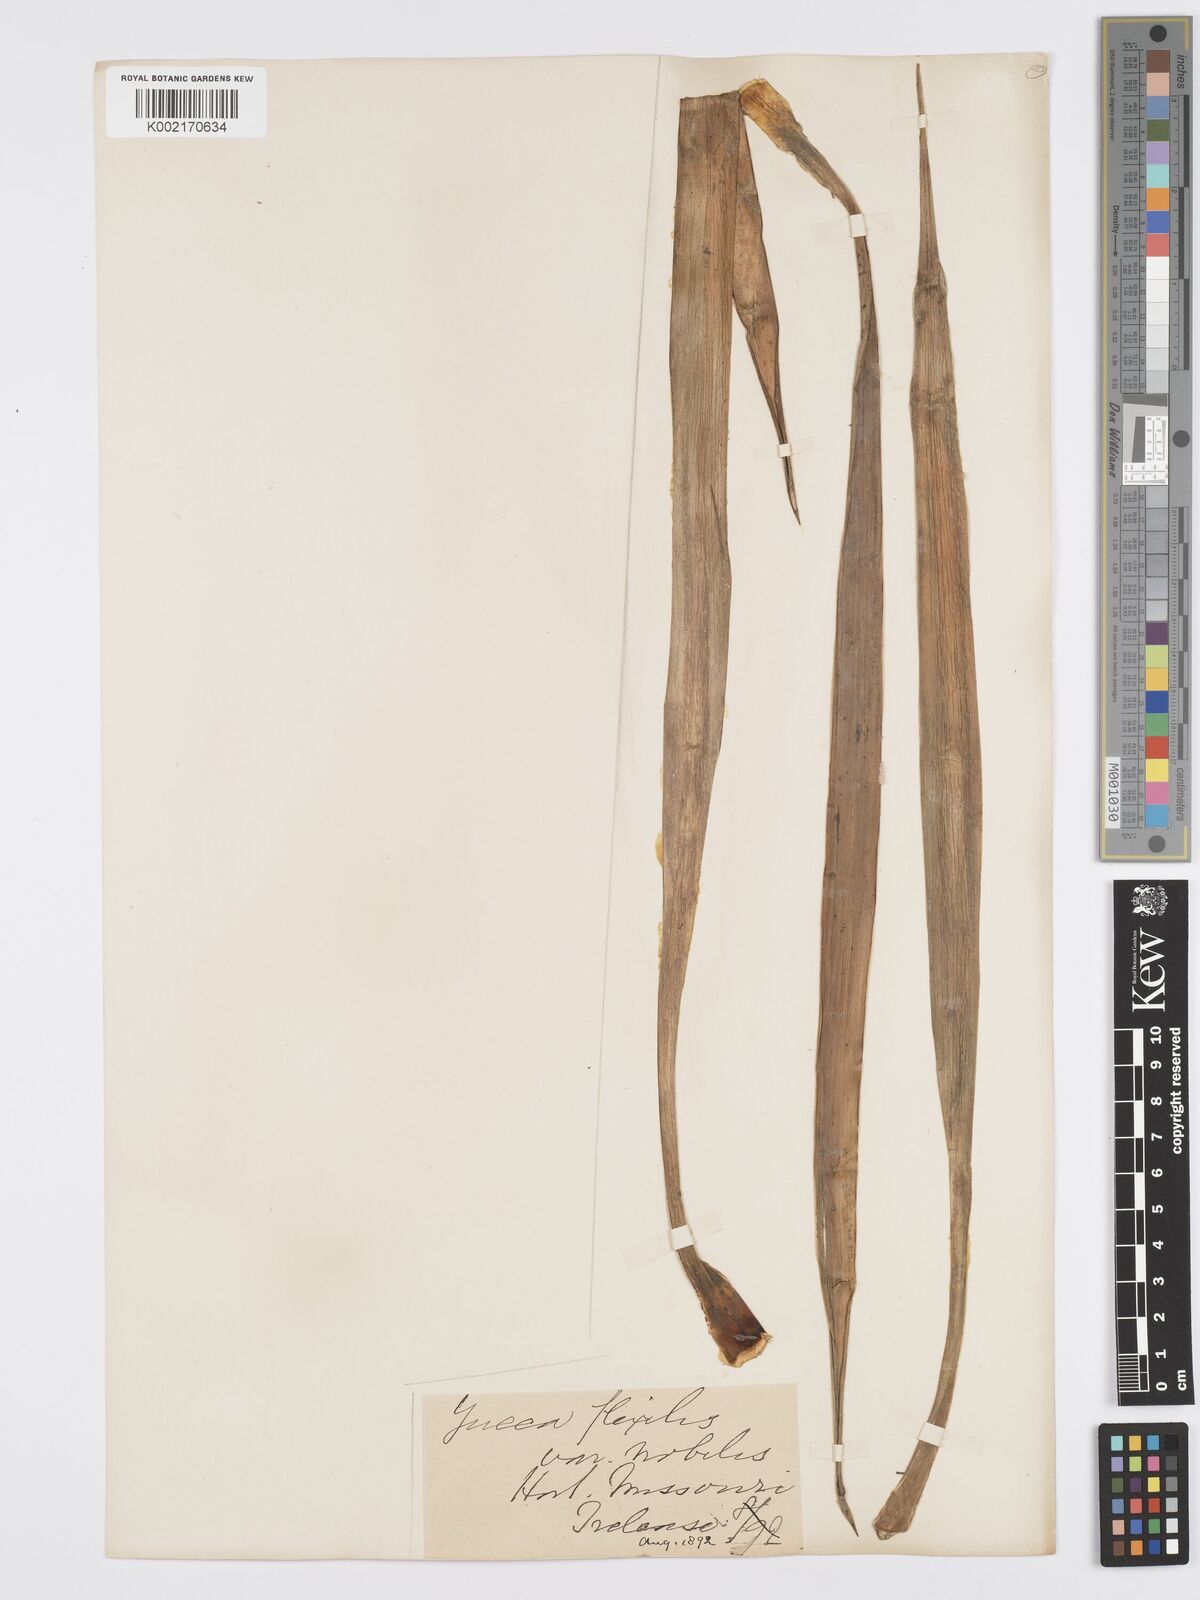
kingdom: Plantae
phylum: Tracheophyta
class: Liliopsida
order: Asparagales
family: Asparagaceae
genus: Yucca
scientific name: Yucca gloriosa
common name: Spanish-dagger
